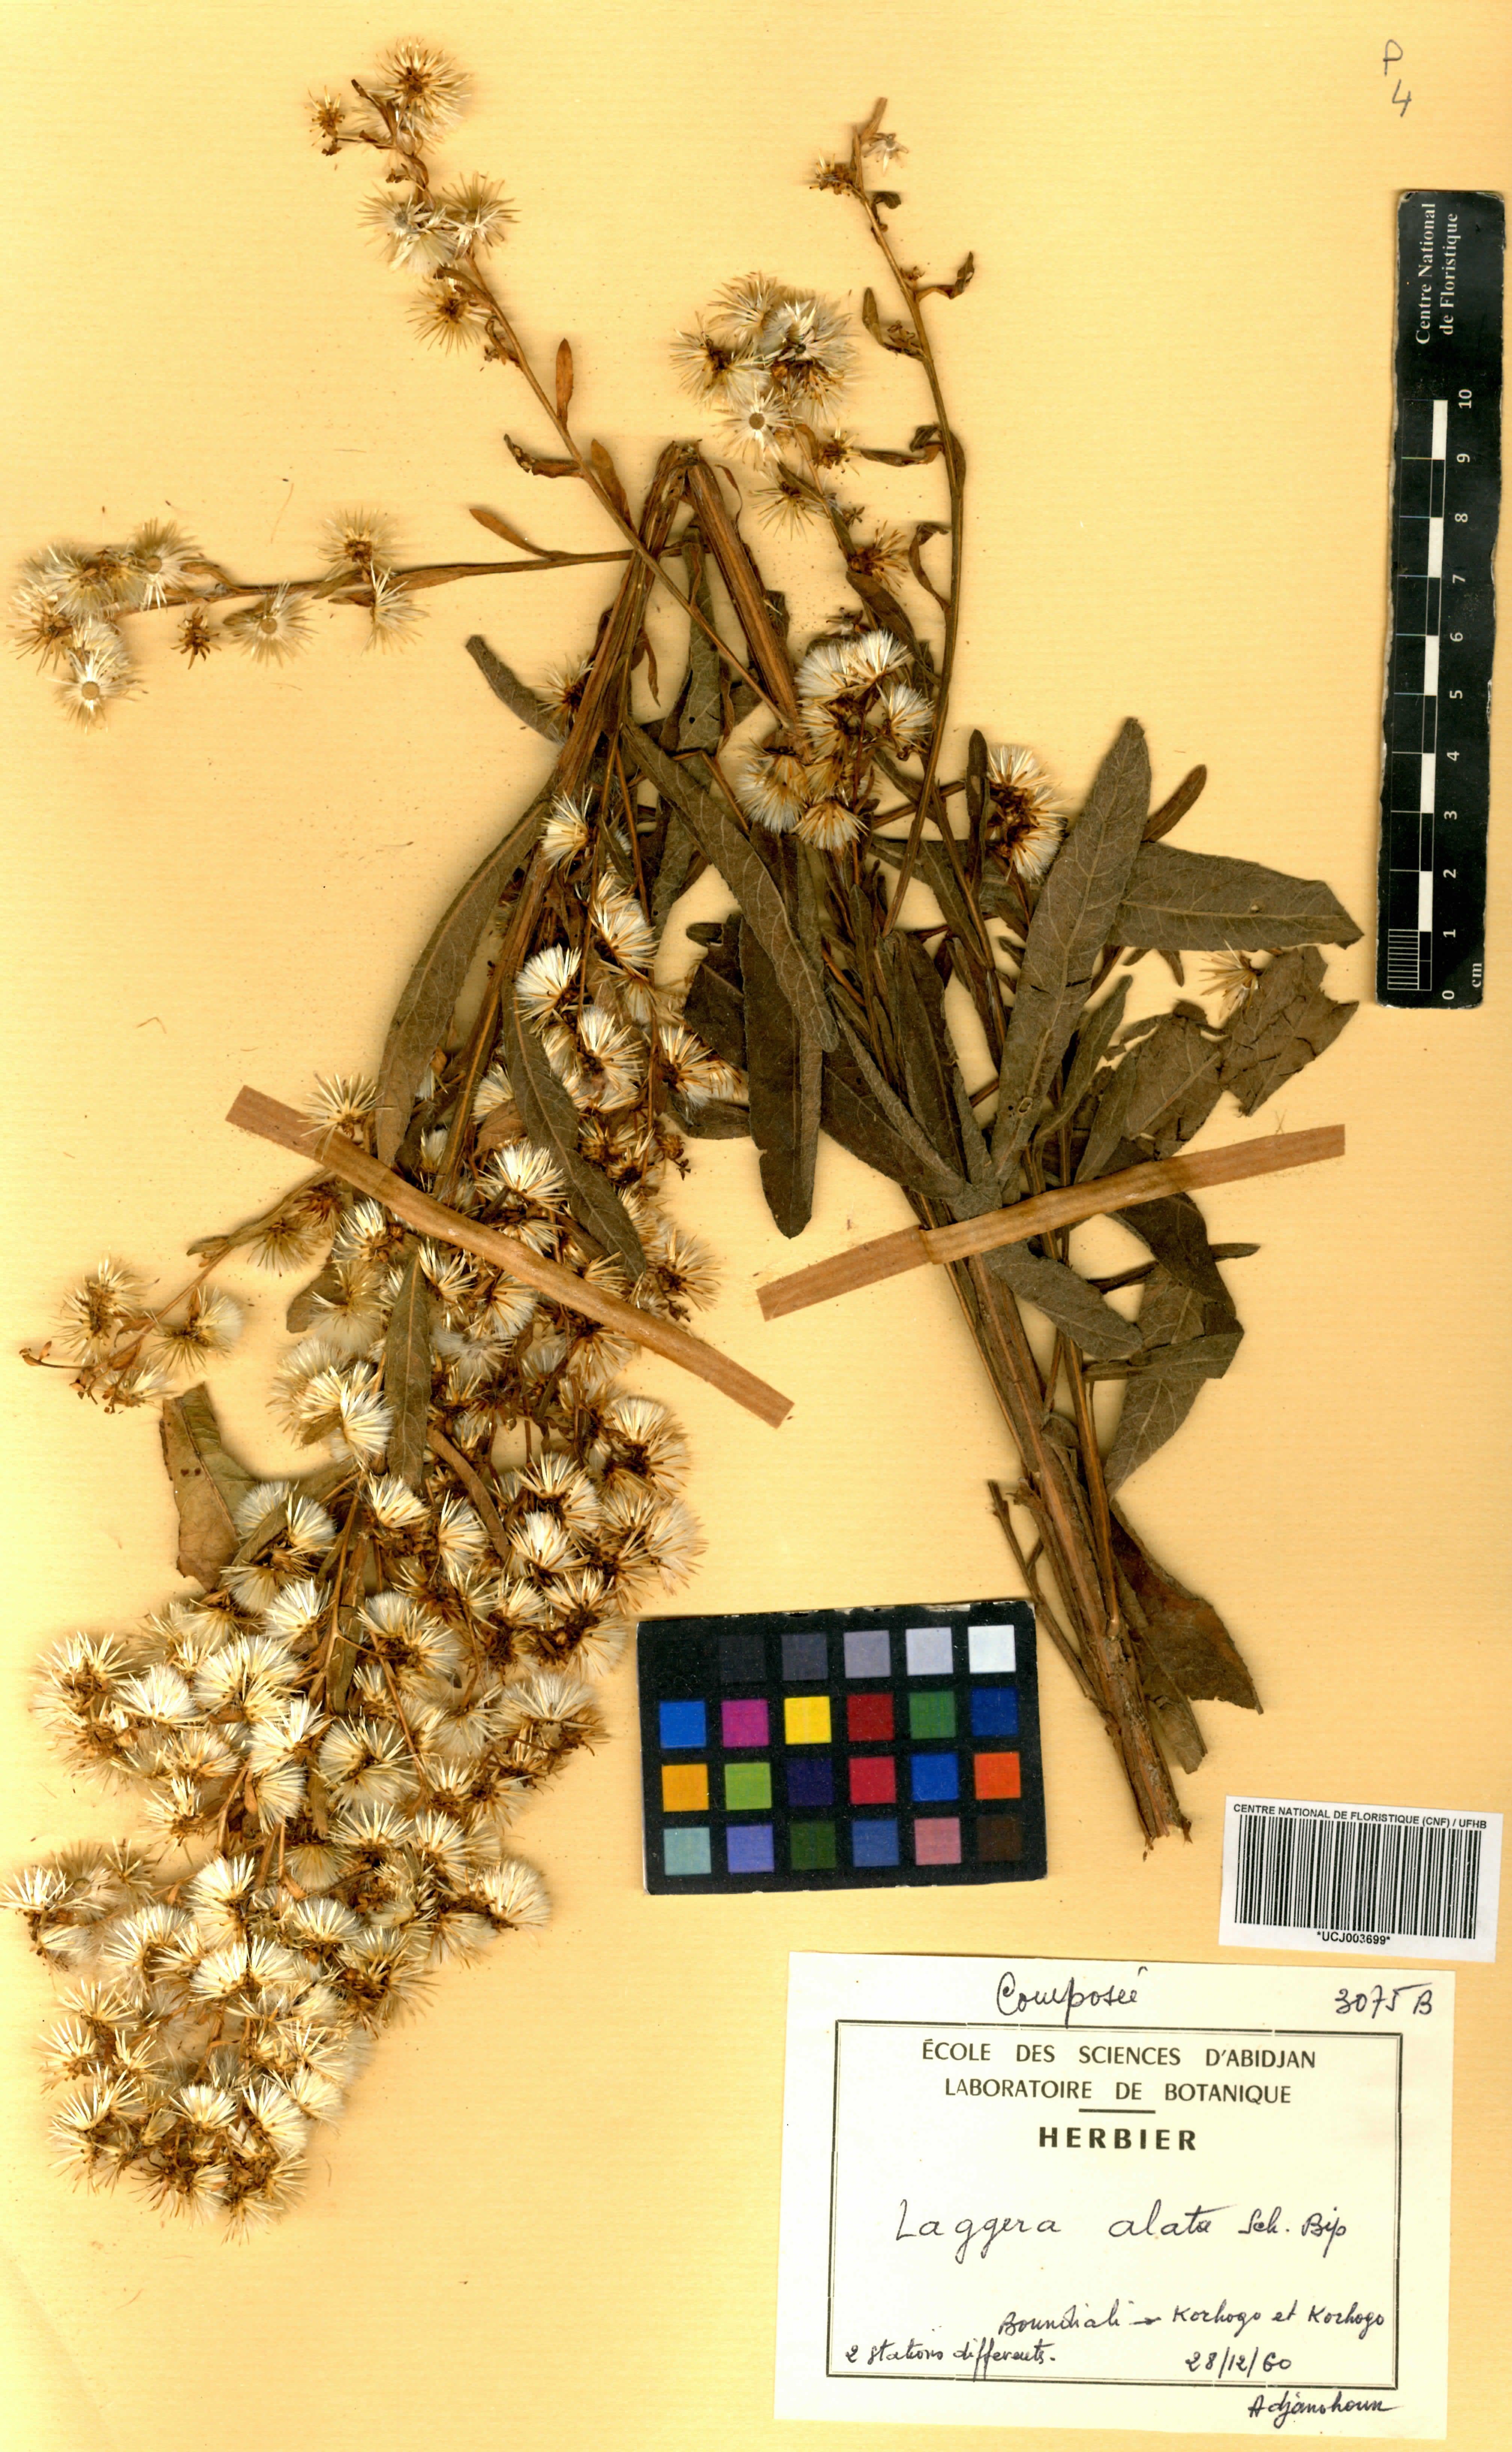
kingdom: Plantae
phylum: Tracheophyta
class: Magnoliopsida
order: Asterales
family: Asteraceae
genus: Laggera
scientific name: Laggera alata
